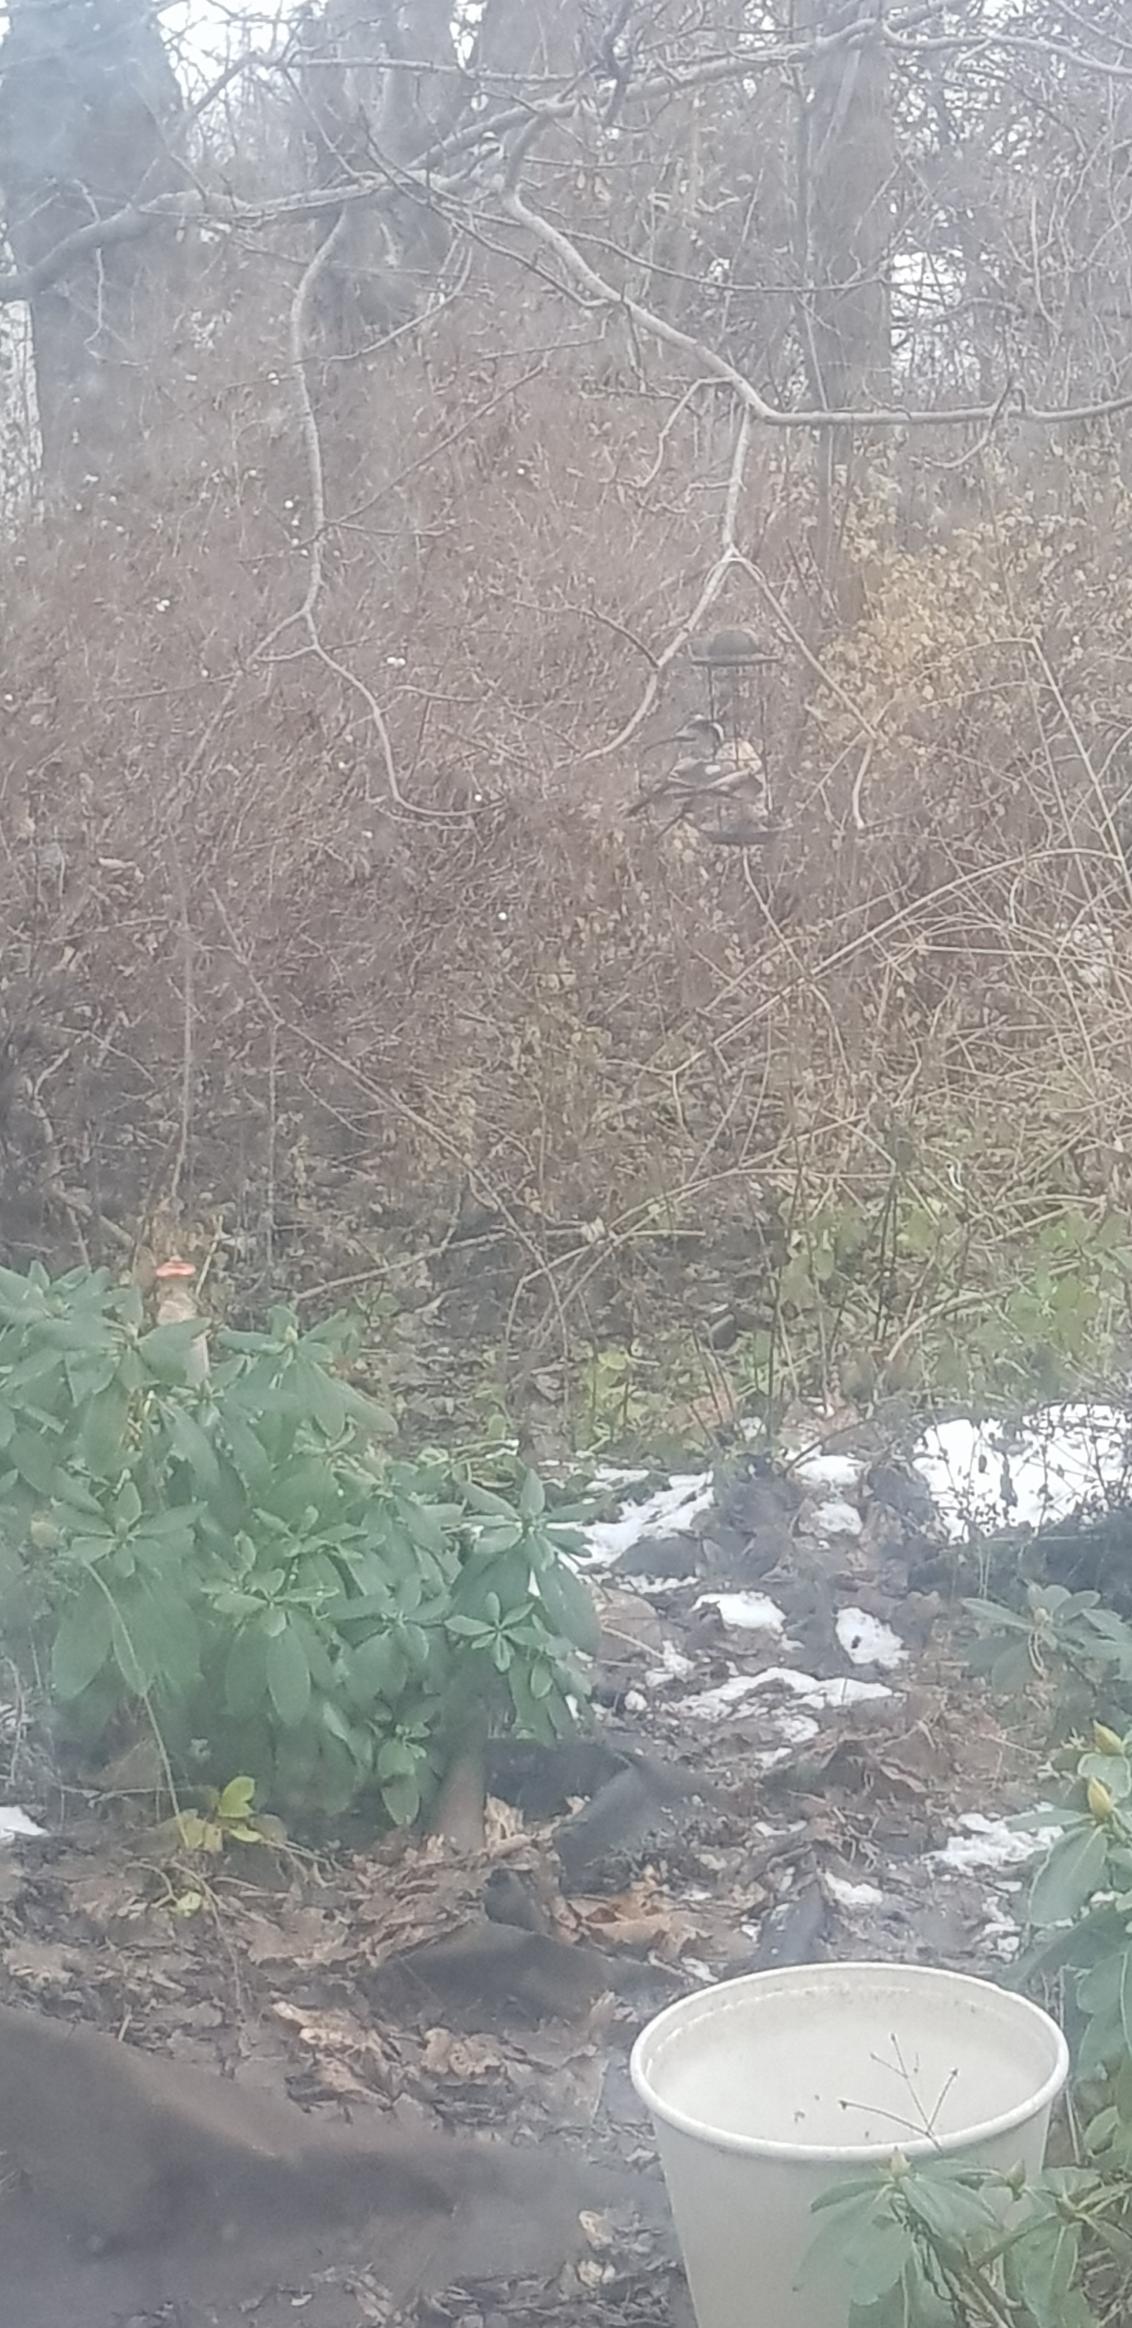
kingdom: Animalia
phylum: Chordata
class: Aves
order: Passeriformes
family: Aegithalidae
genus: Aegithalos
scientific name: Aegithalos caudatus
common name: Halemejse
